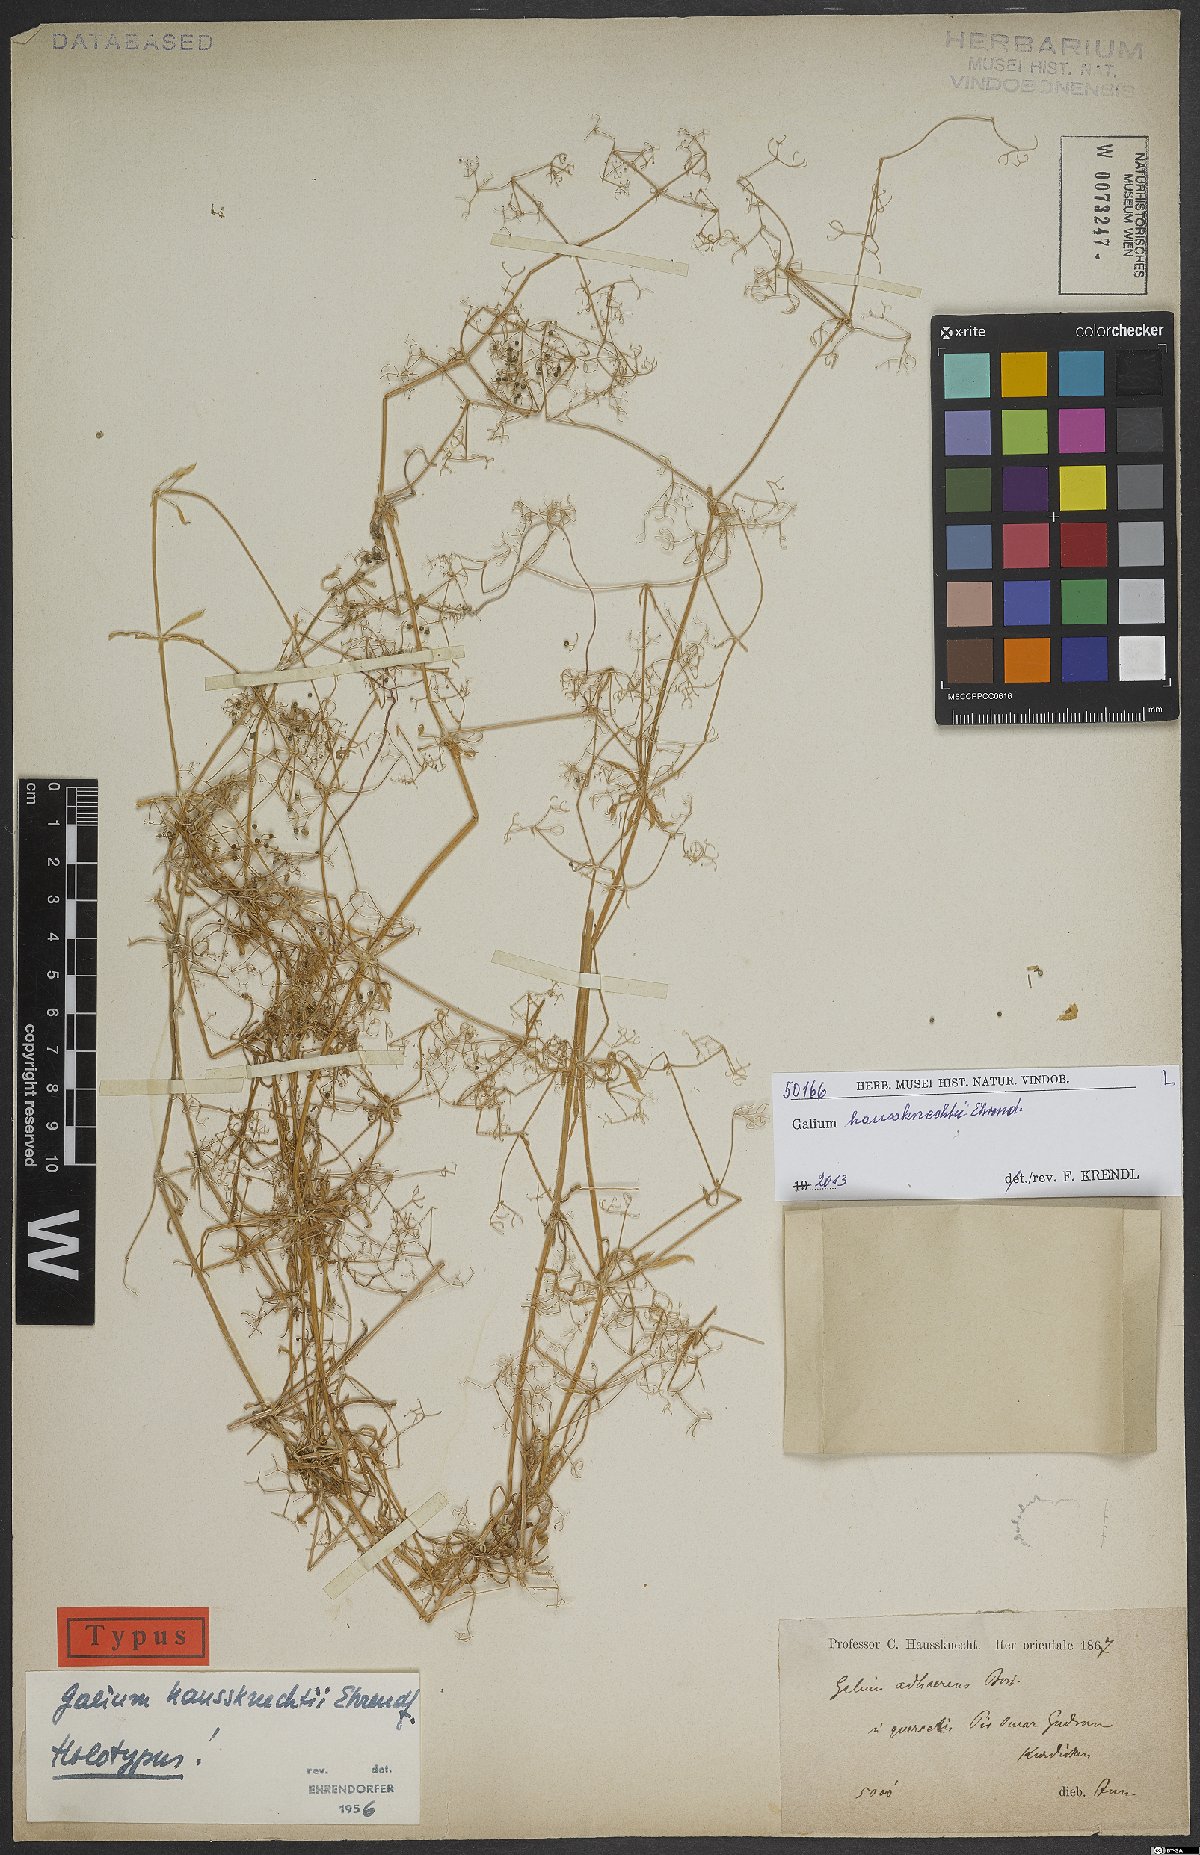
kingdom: Plantae
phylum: Tracheophyta
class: Magnoliopsida
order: Gentianales
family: Rubiaceae
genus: Galium
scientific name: Galium haussknechtii
